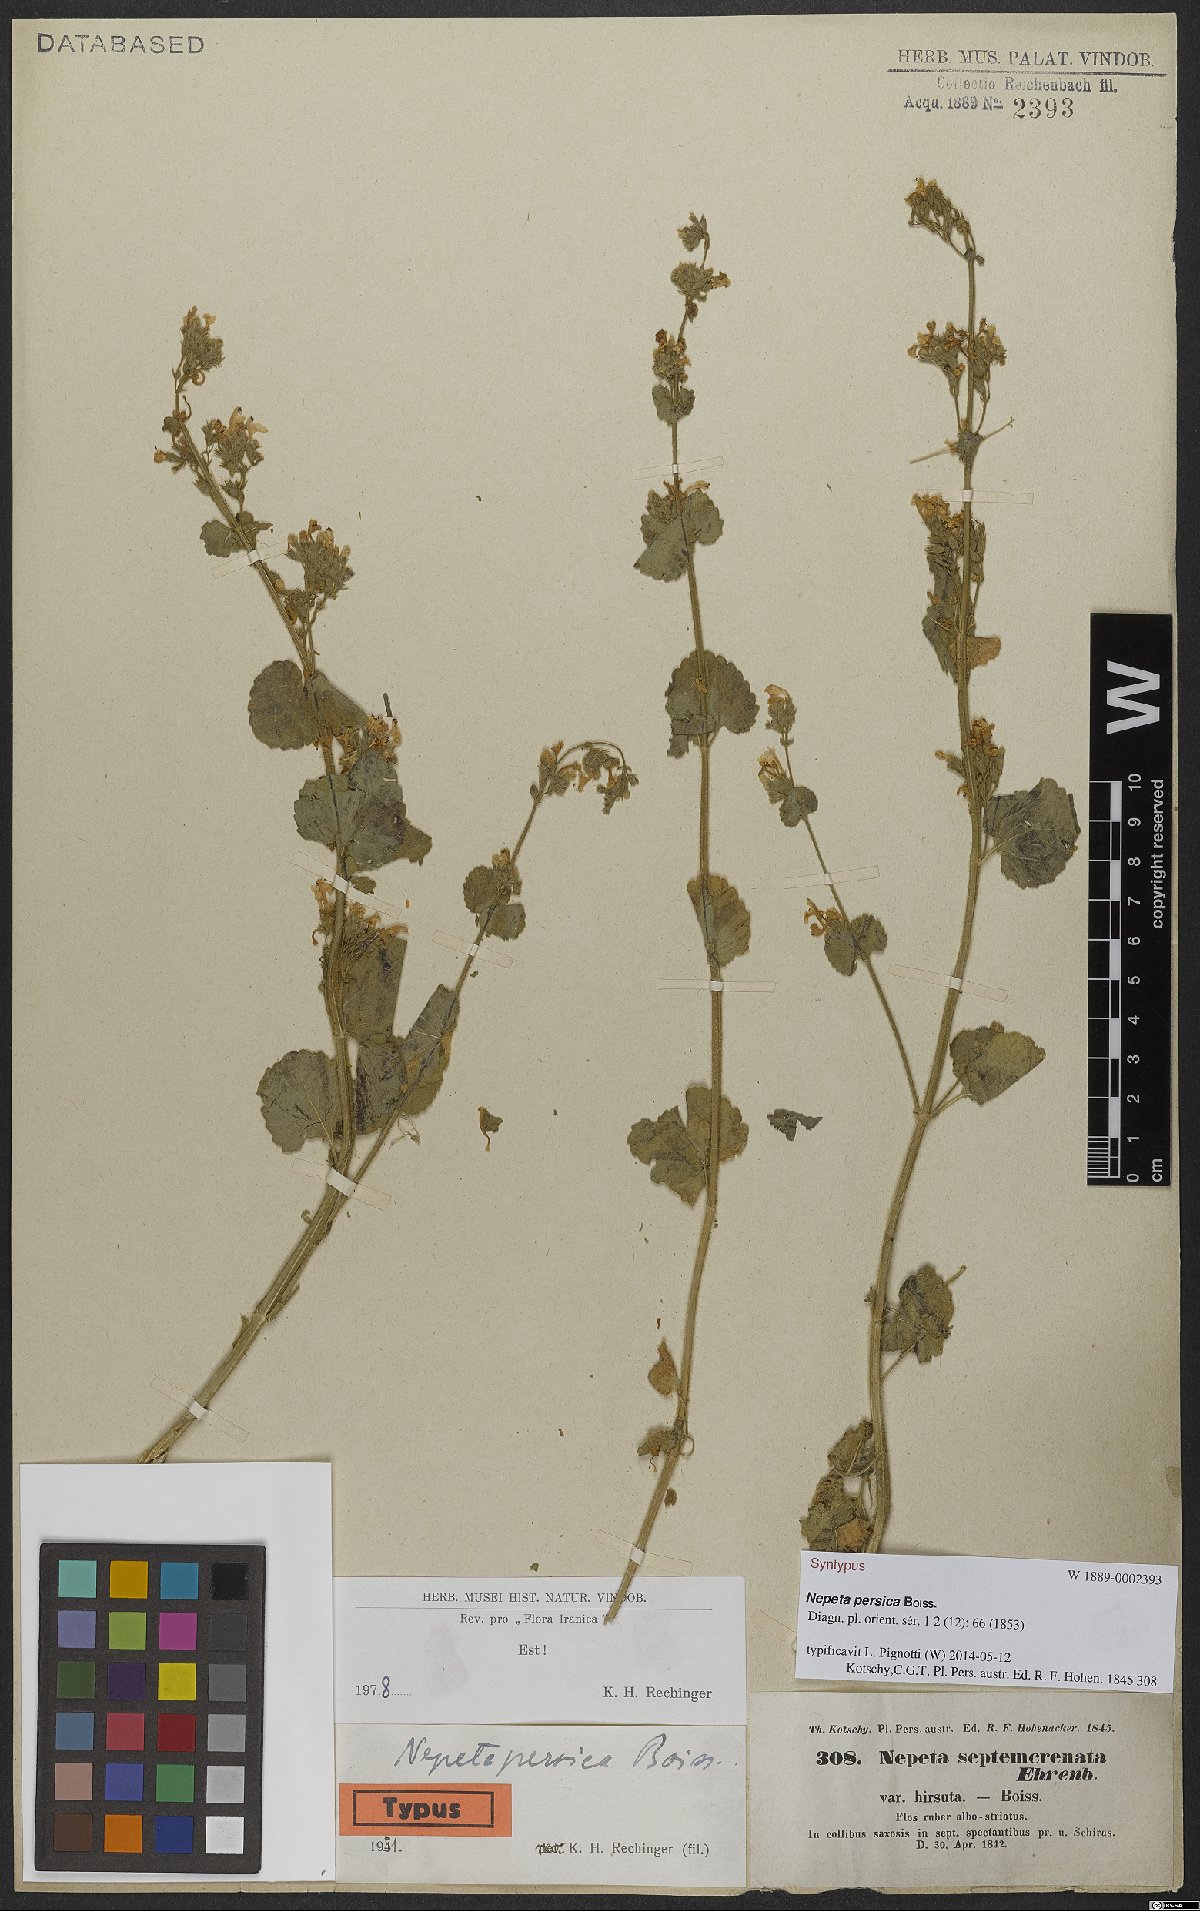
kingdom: Plantae
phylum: Tracheophyta
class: Magnoliopsida
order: Lamiales
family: Lamiaceae
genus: Nepeta
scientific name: Nepeta persica
